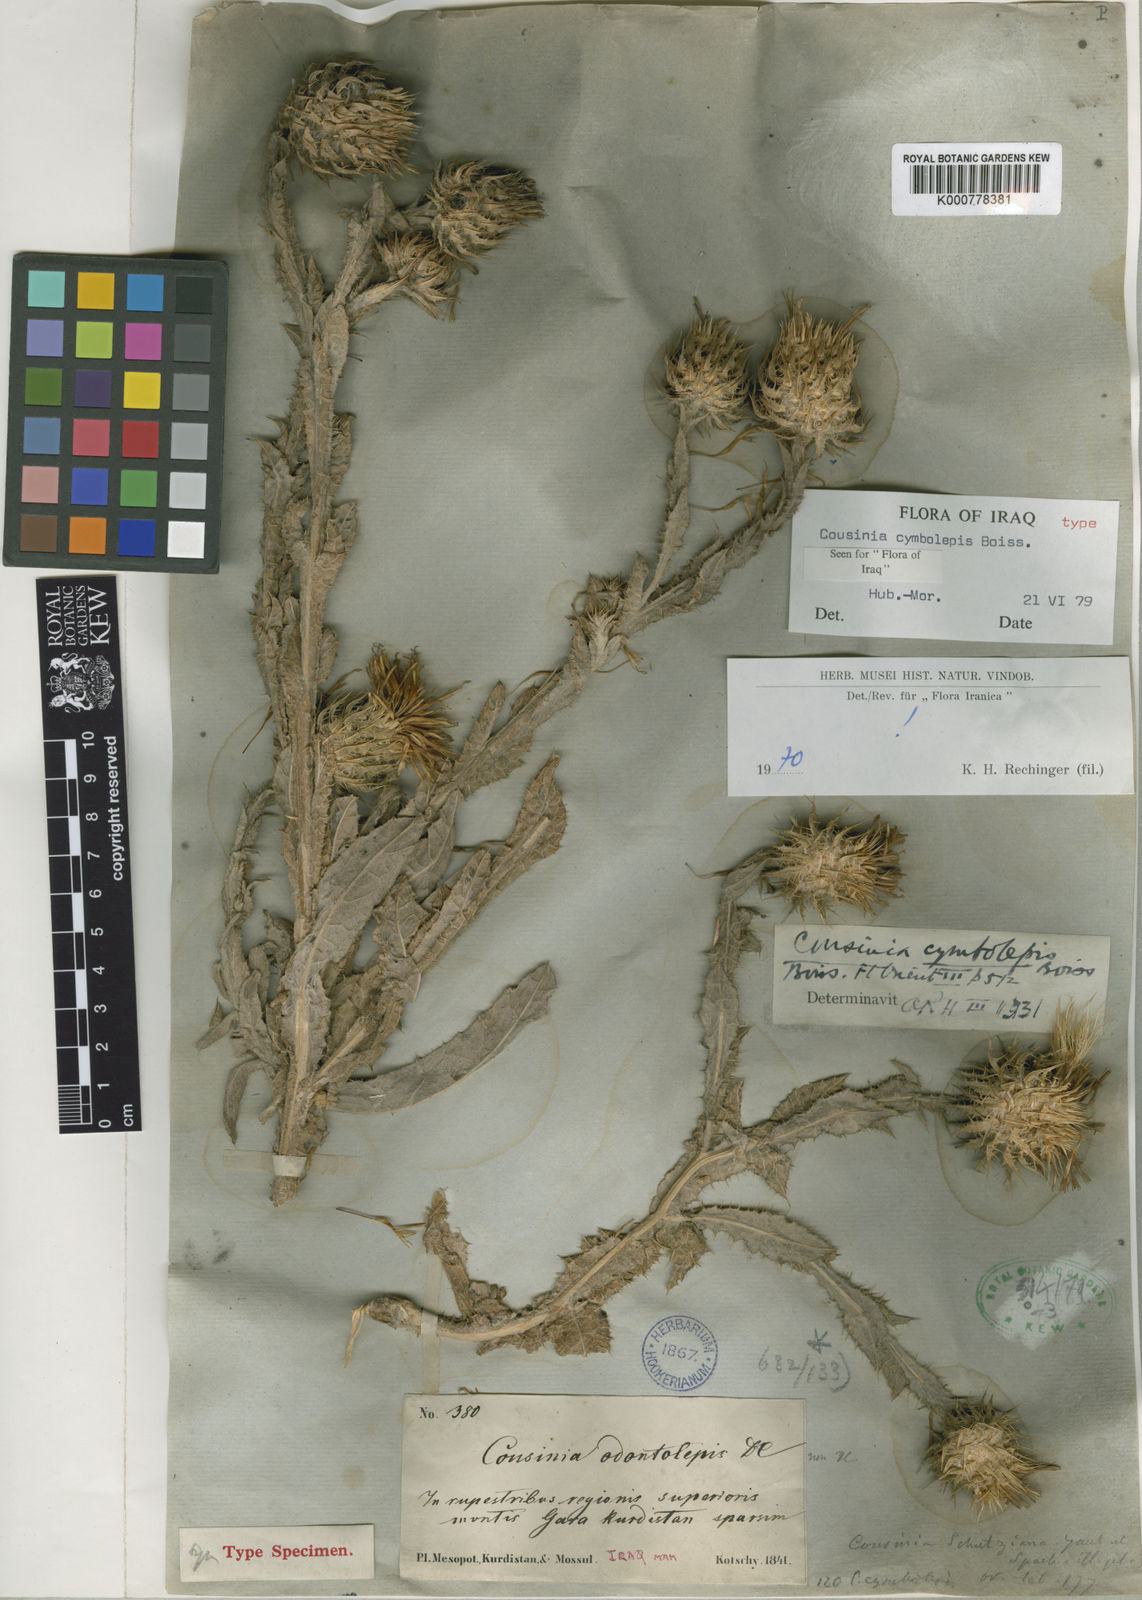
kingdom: Plantae
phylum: Tracheophyta
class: Magnoliopsida
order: Asterales
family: Asteraceae
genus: Cousinia
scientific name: Cousinia odontolepis
